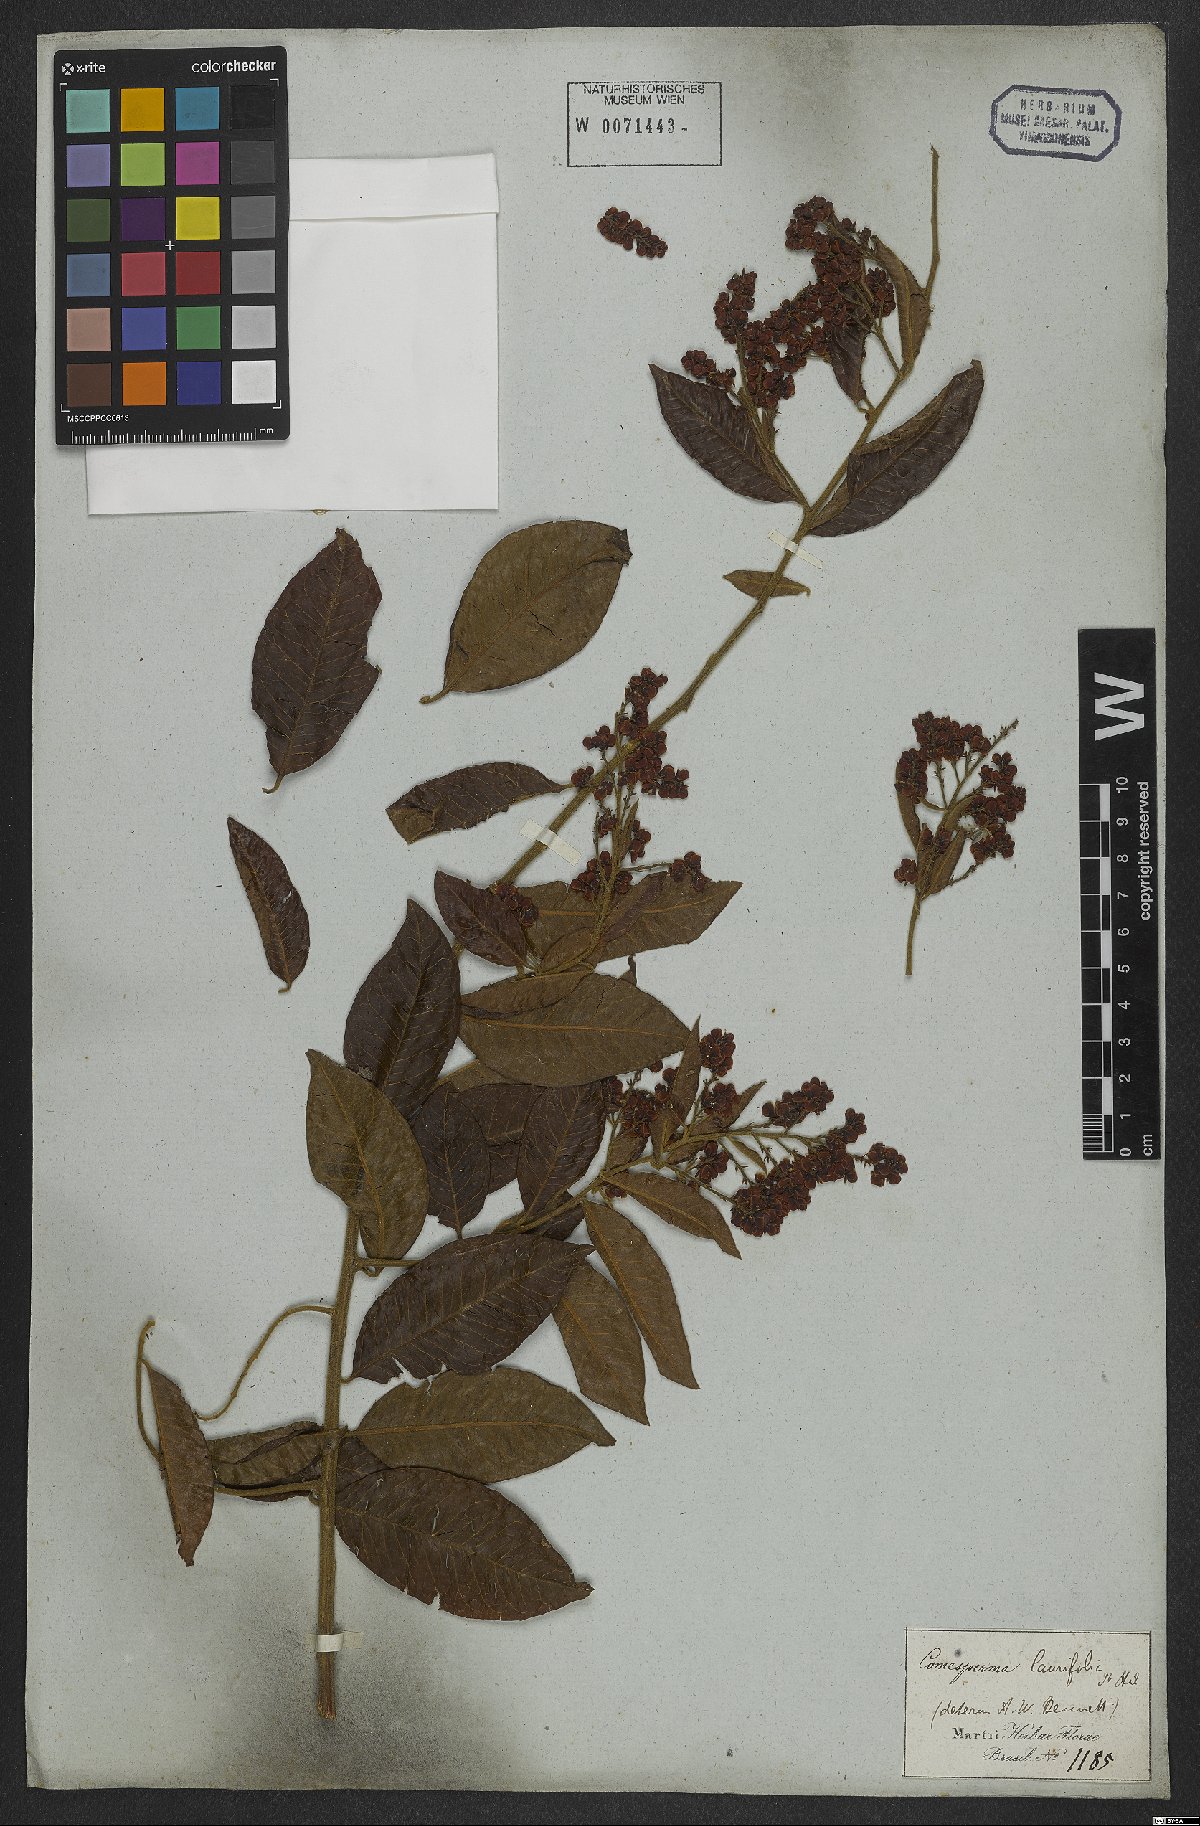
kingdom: Plantae
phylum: Tracheophyta
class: Magnoliopsida
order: Fabales
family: Polygalaceae
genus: Bredemeyera
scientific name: Bredemeyera laurifolia
